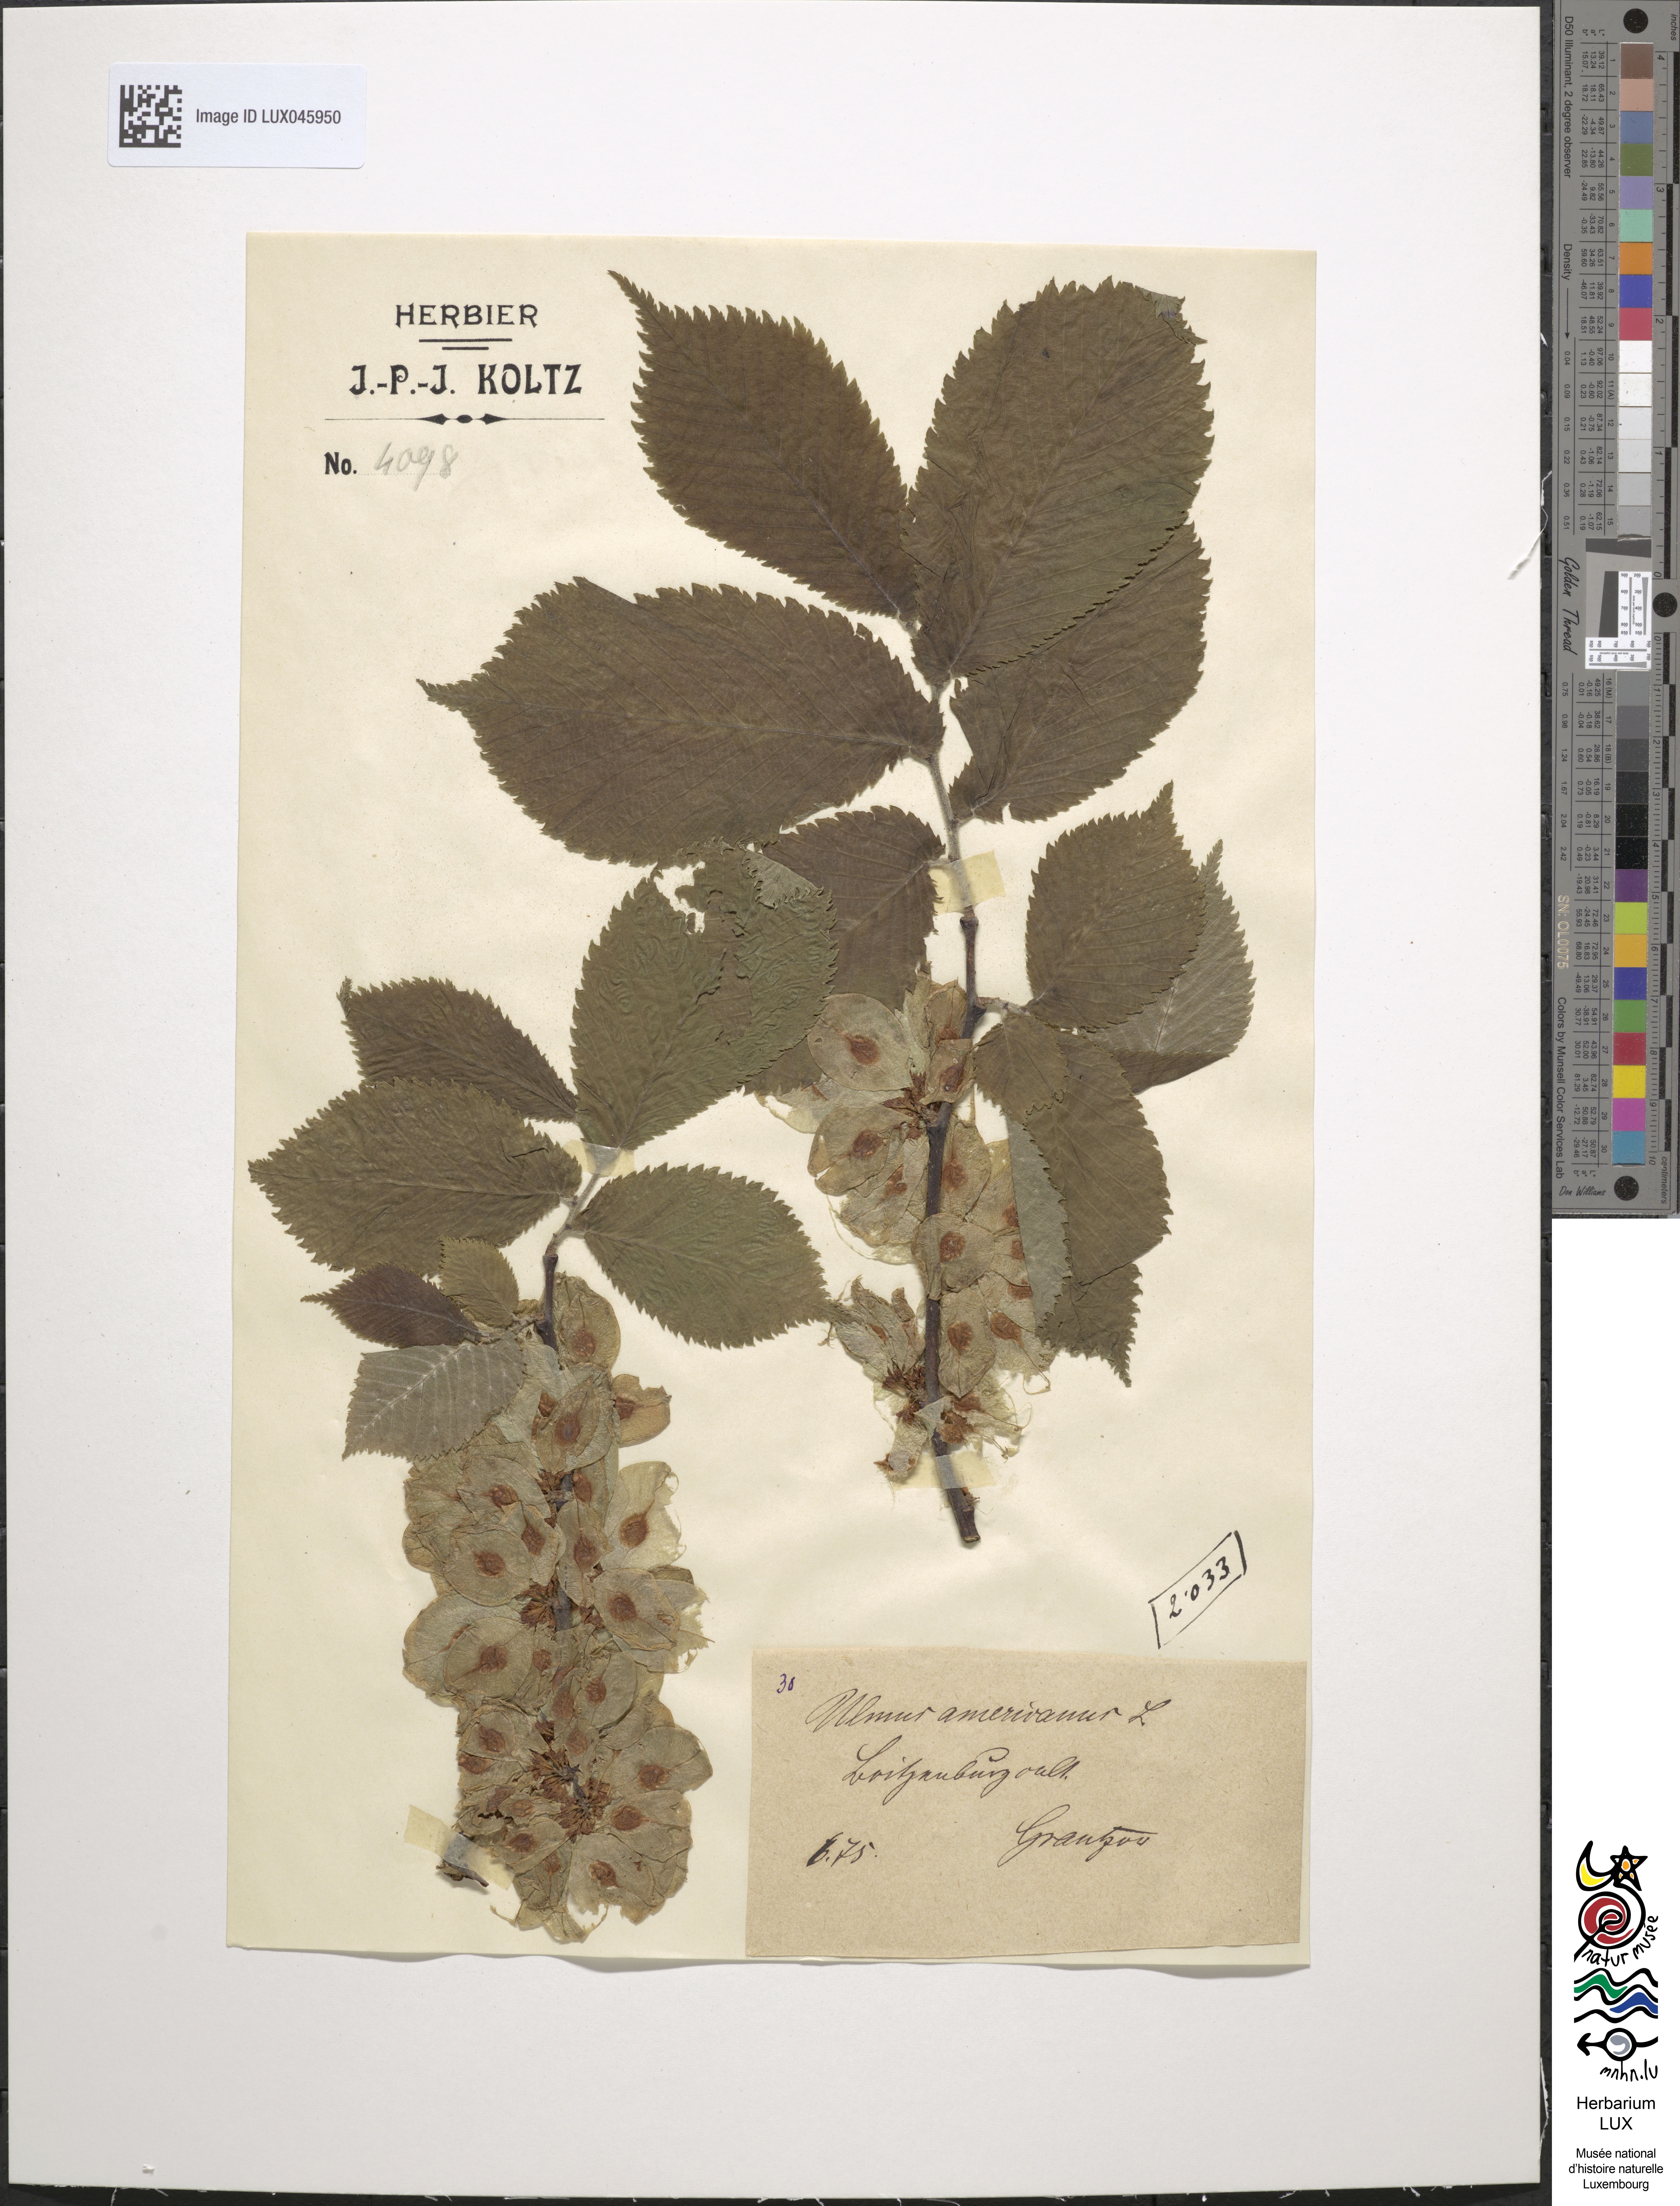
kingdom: Plantae
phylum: Tracheophyta
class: Magnoliopsida
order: Rosales
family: Ulmaceae
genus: Ulmus
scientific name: Ulmus americana
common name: American elm
